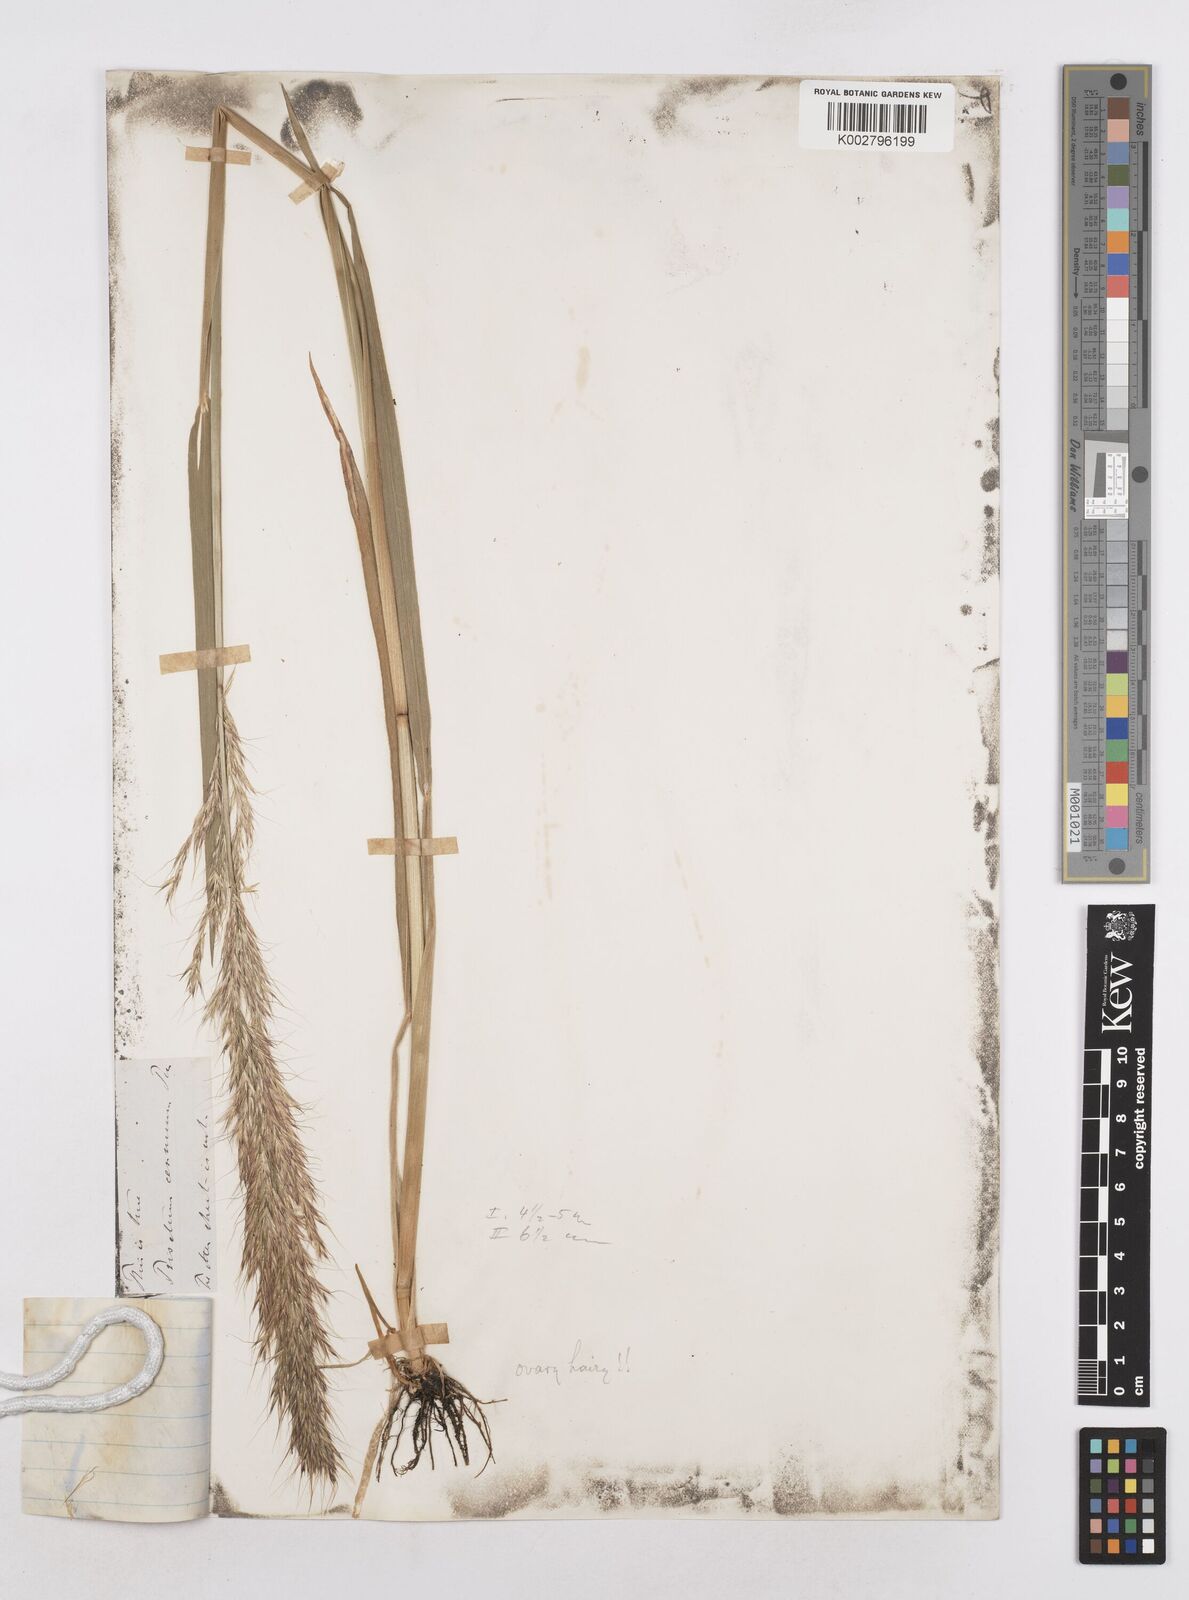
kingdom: Plantae
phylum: Tracheophyta
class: Liliopsida
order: Poales
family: Poaceae
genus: Graphephorum
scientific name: Graphephorum canescens
